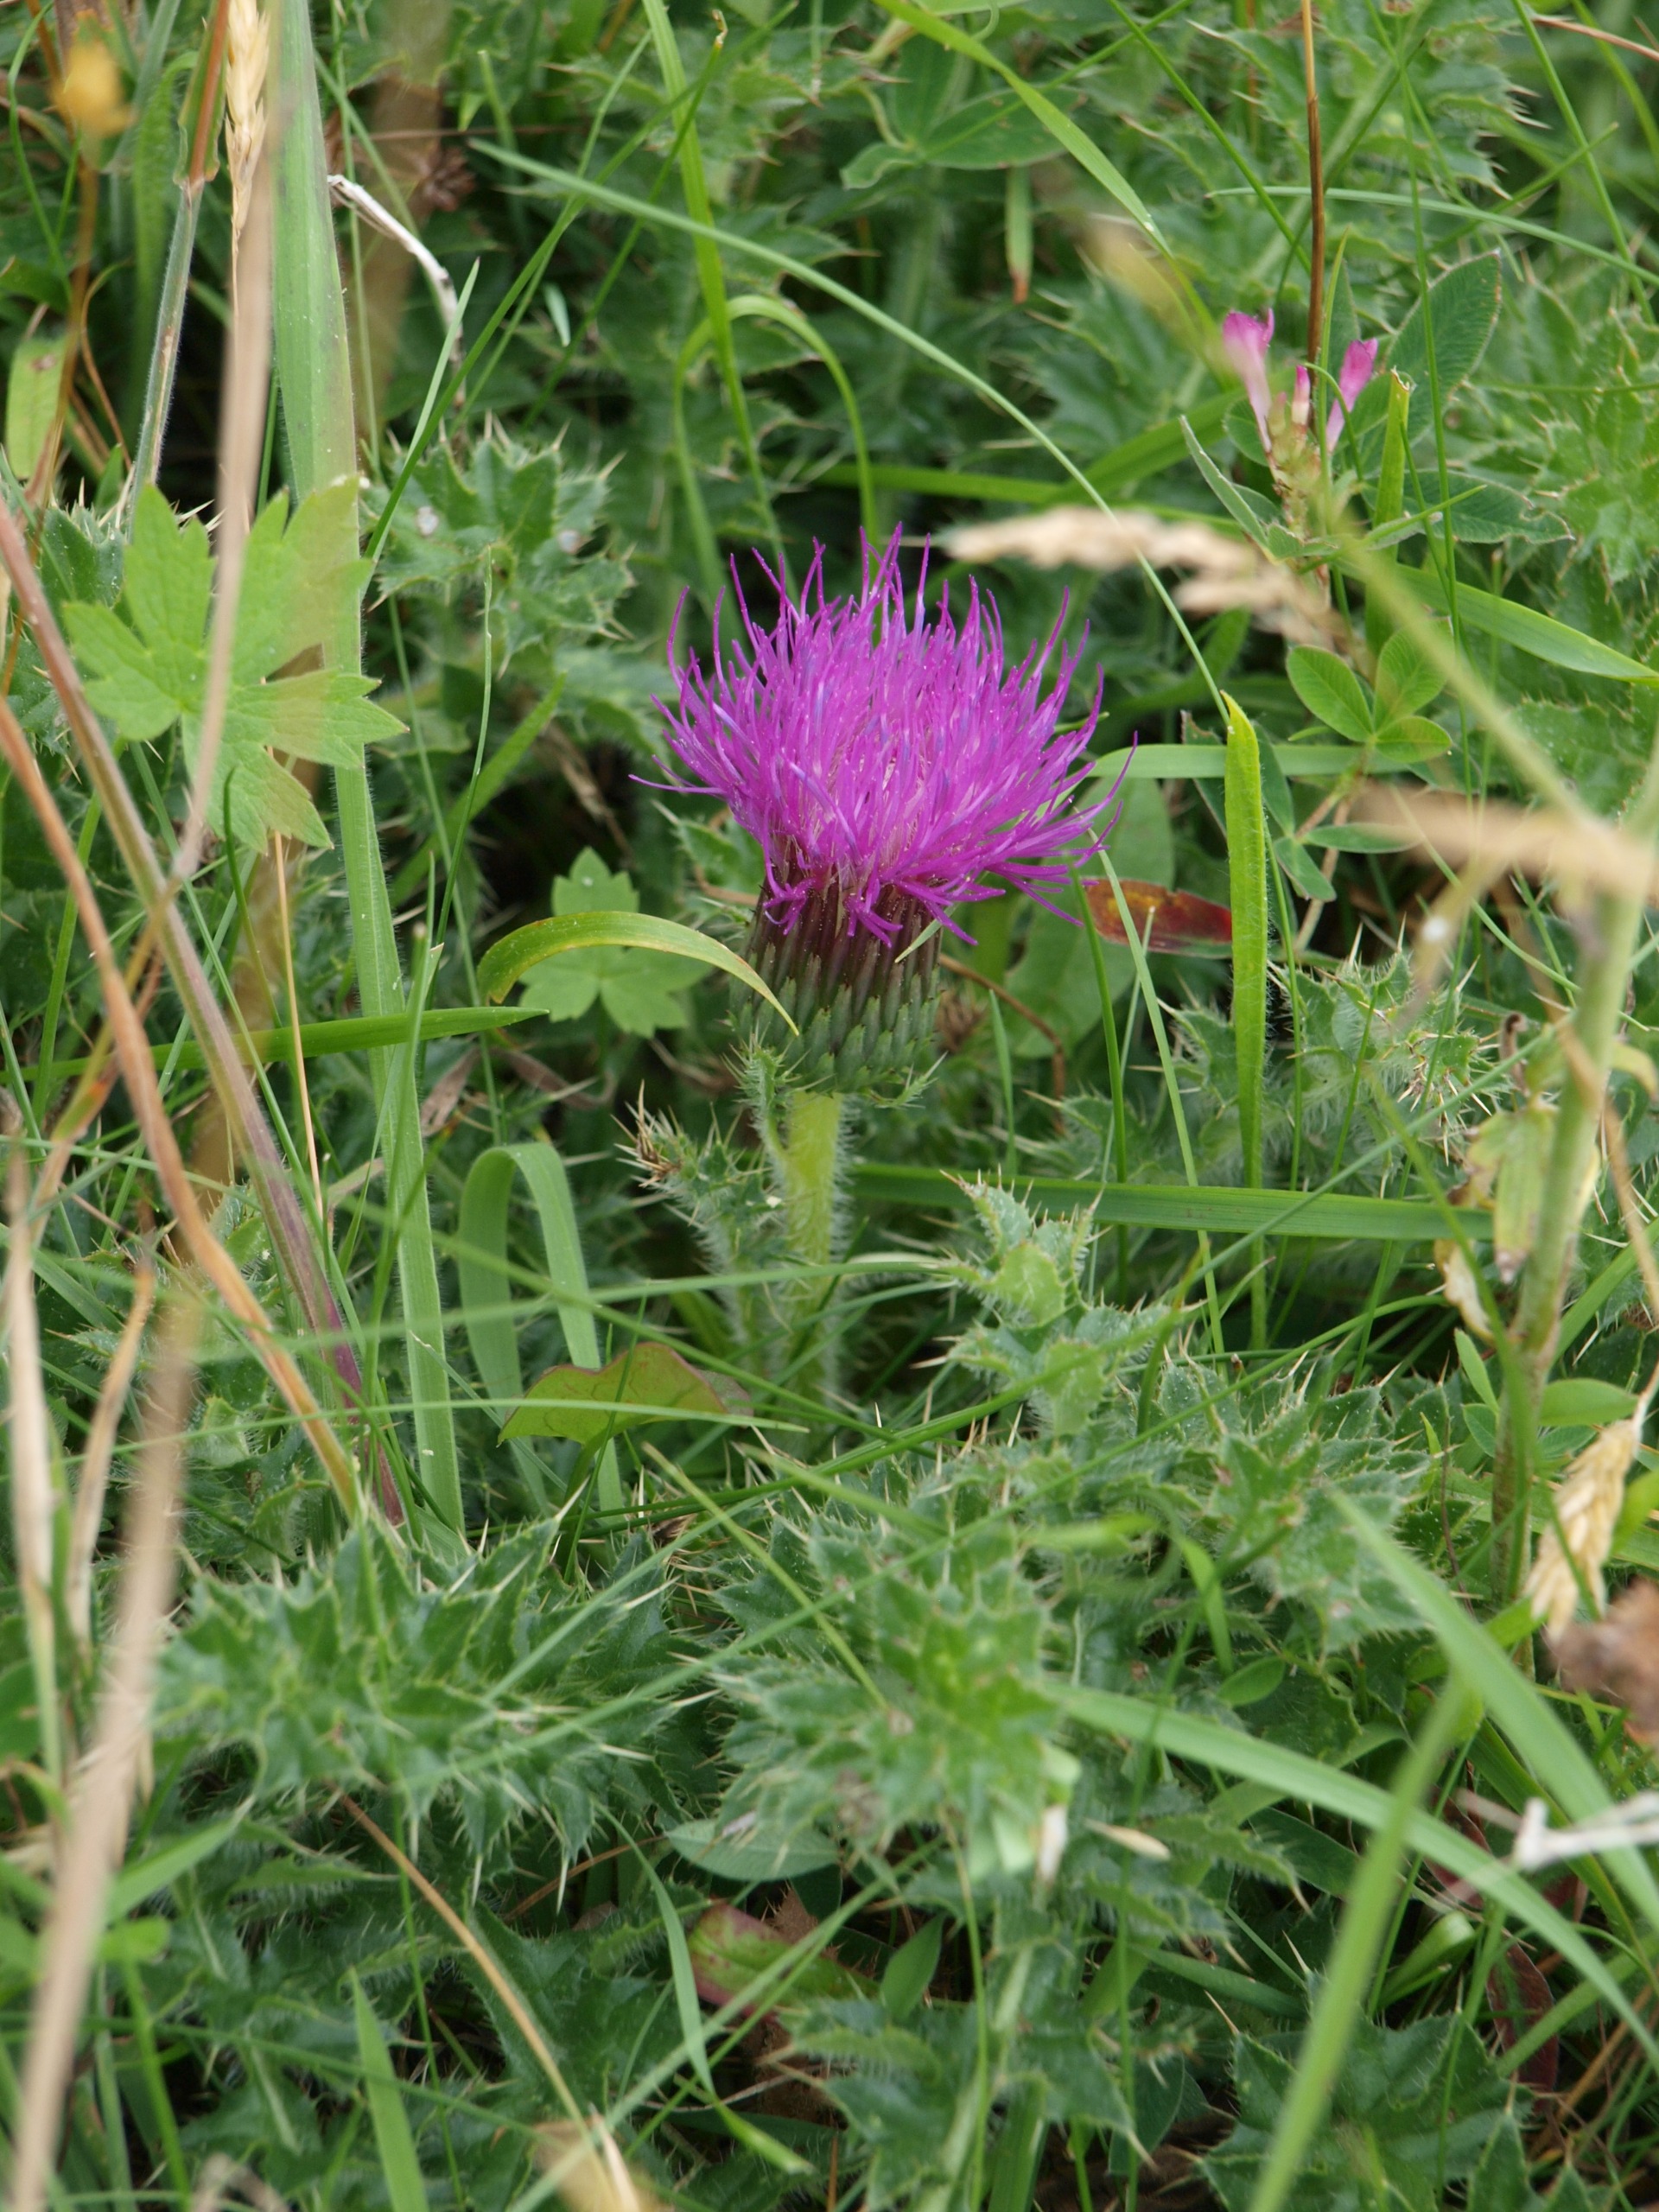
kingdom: Plantae
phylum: Tracheophyta
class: Magnoliopsida
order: Asterales
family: Asteraceae
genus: Cirsium
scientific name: Cirsium acaule
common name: Lav tidsel
